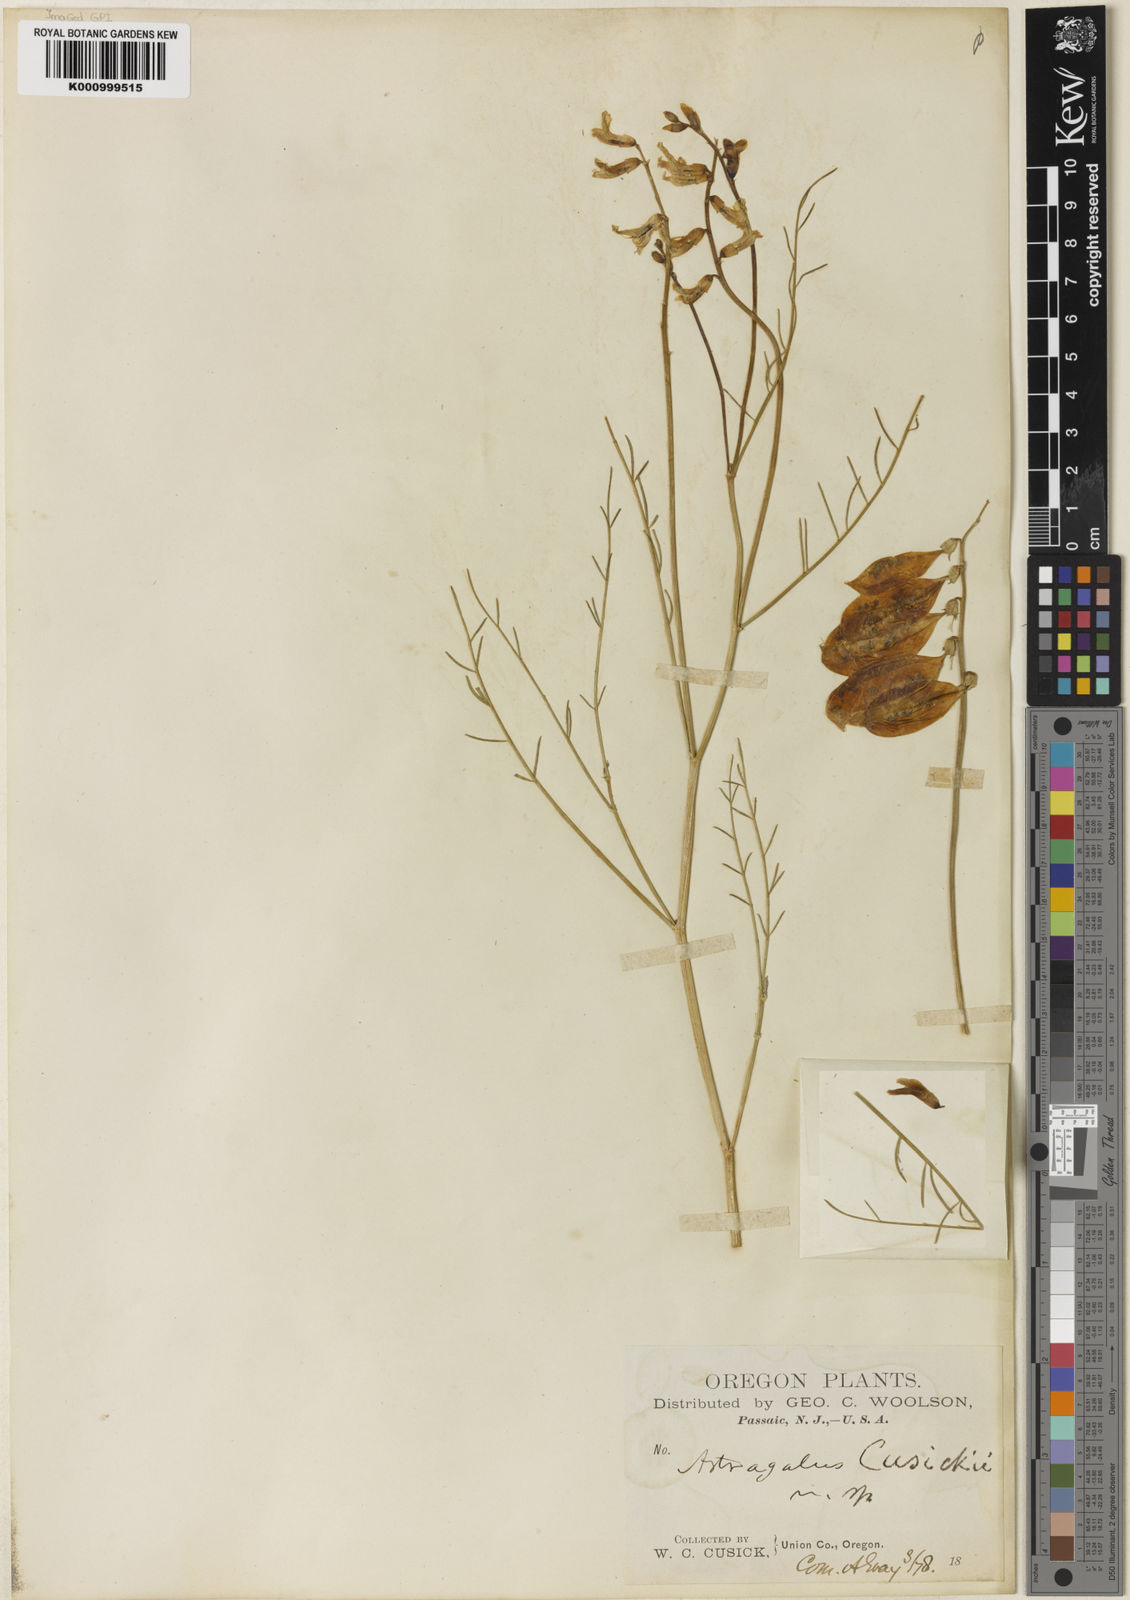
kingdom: Plantae
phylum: Tracheophyta
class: Magnoliopsida
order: Fabales
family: Fabaceae
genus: Astragalus
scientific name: Astragalus cusickii
